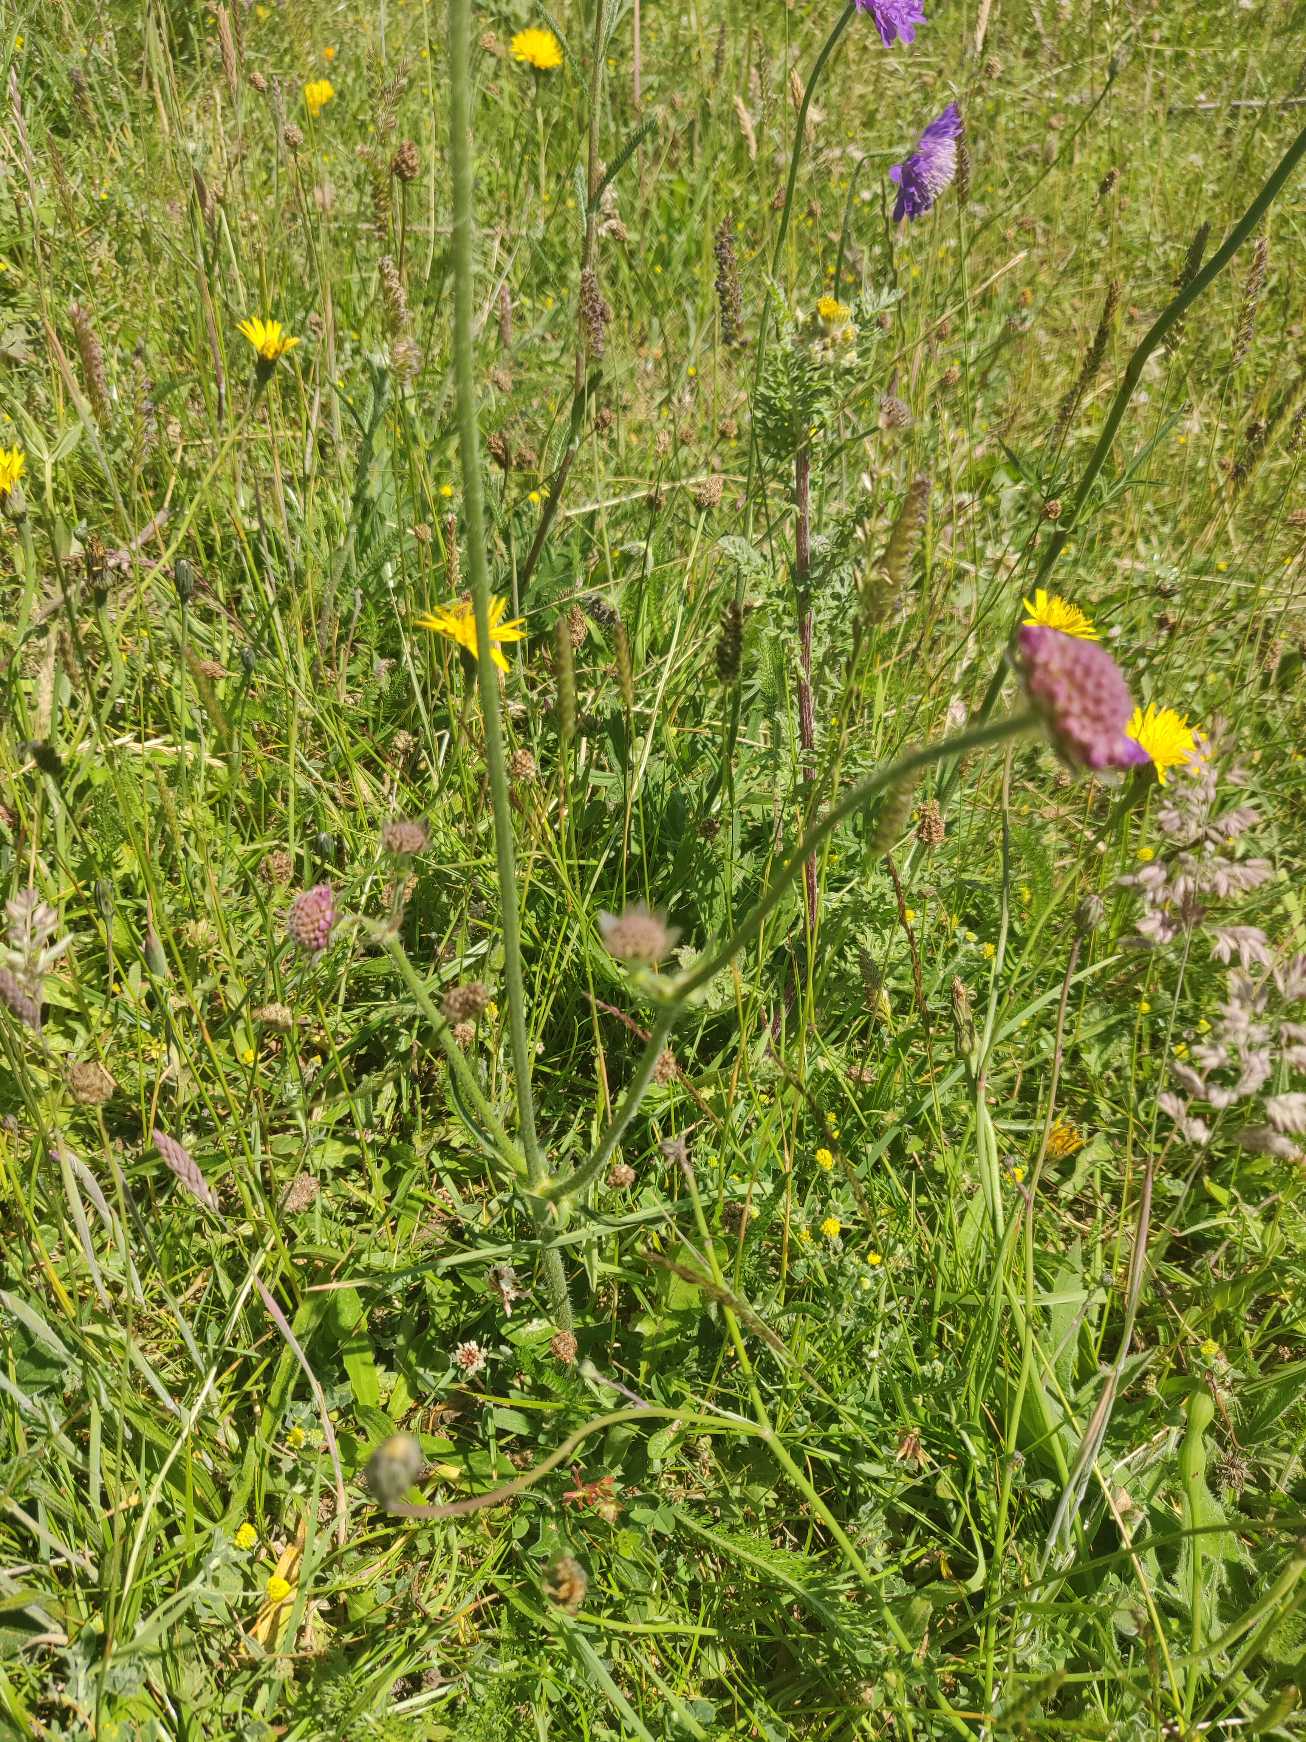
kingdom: Plantae
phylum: Tracheophyta
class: Magnoliopsida
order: Dipsacales
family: Caprifoliaceae
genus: Knautia
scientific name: Knautia arvensis
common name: Blåhat
